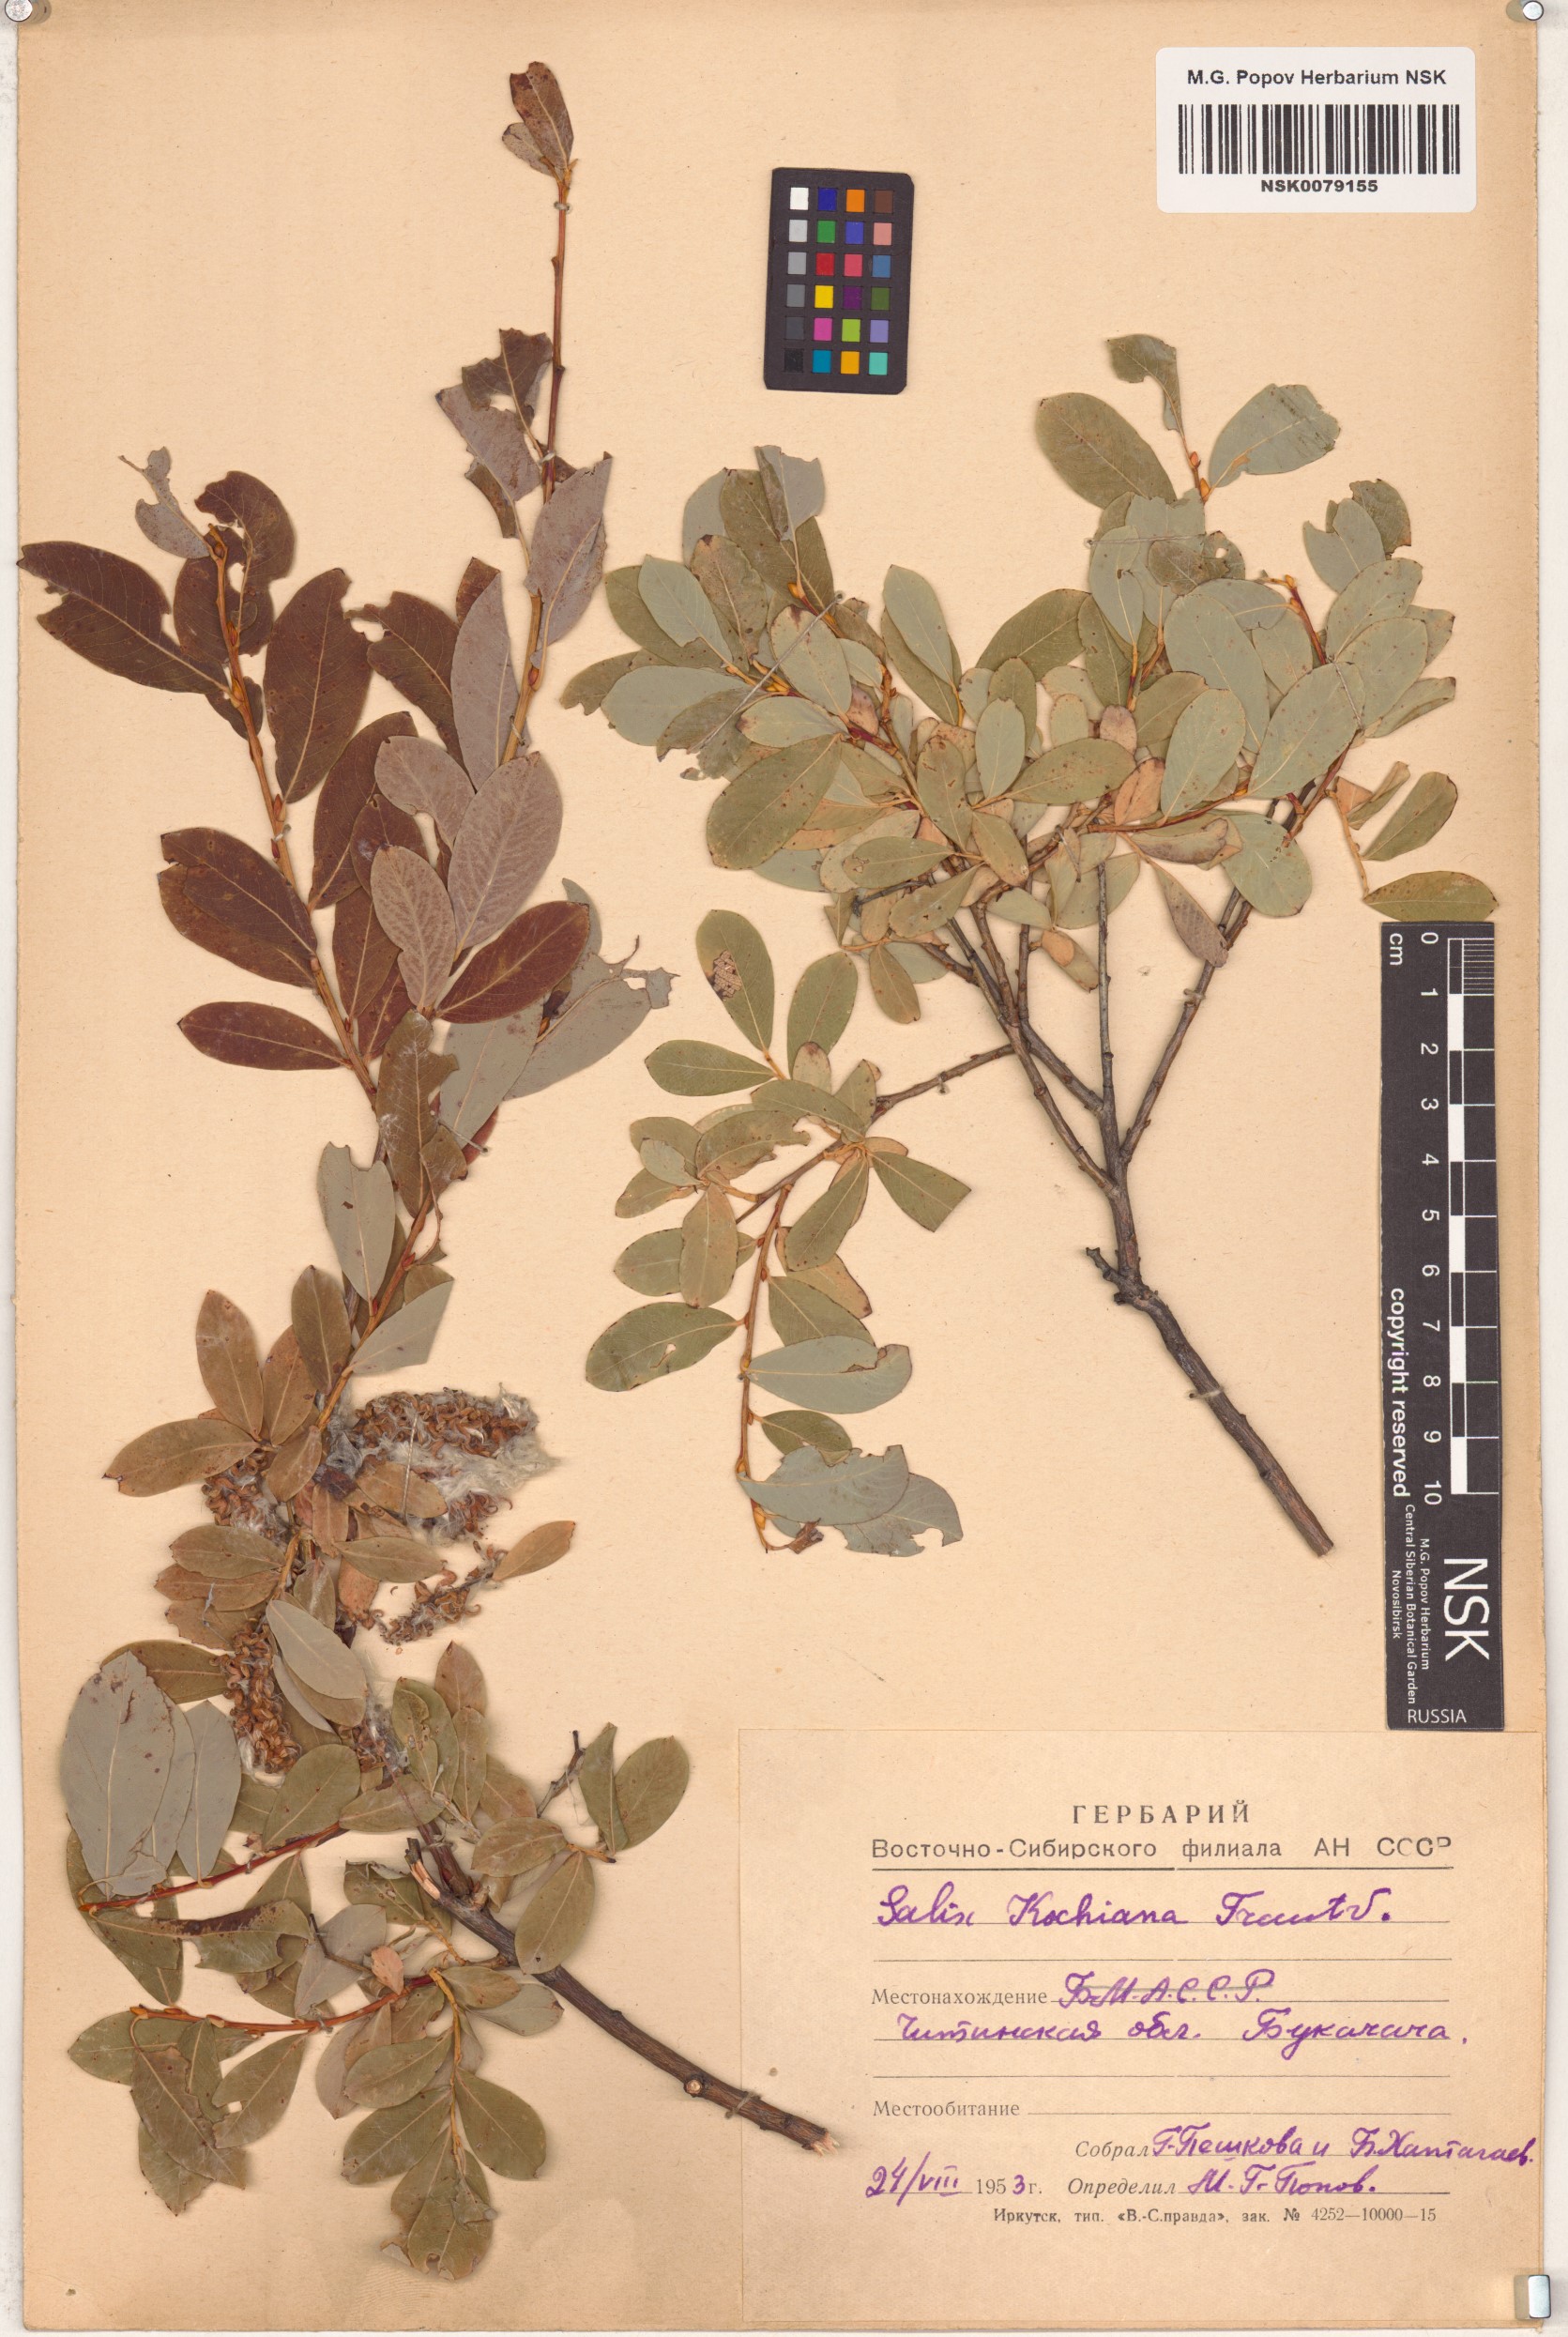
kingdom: Plantae
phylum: Tracheophyta
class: Magnoliopsida
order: Malpighiales
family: Salicaceae
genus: Salix
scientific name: Salix kochiana
